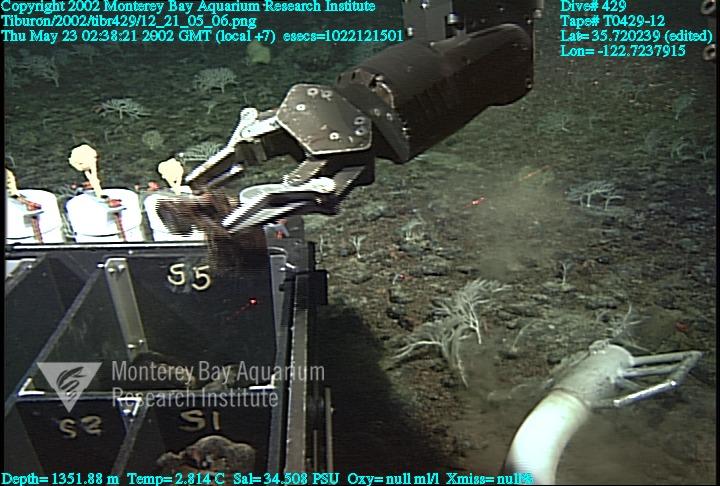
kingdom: Animalia
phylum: Porifera
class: Hexactinellida
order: Lyssacinosida
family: Rossellidae
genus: Staurocalyptus
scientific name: Staurocalyptus
